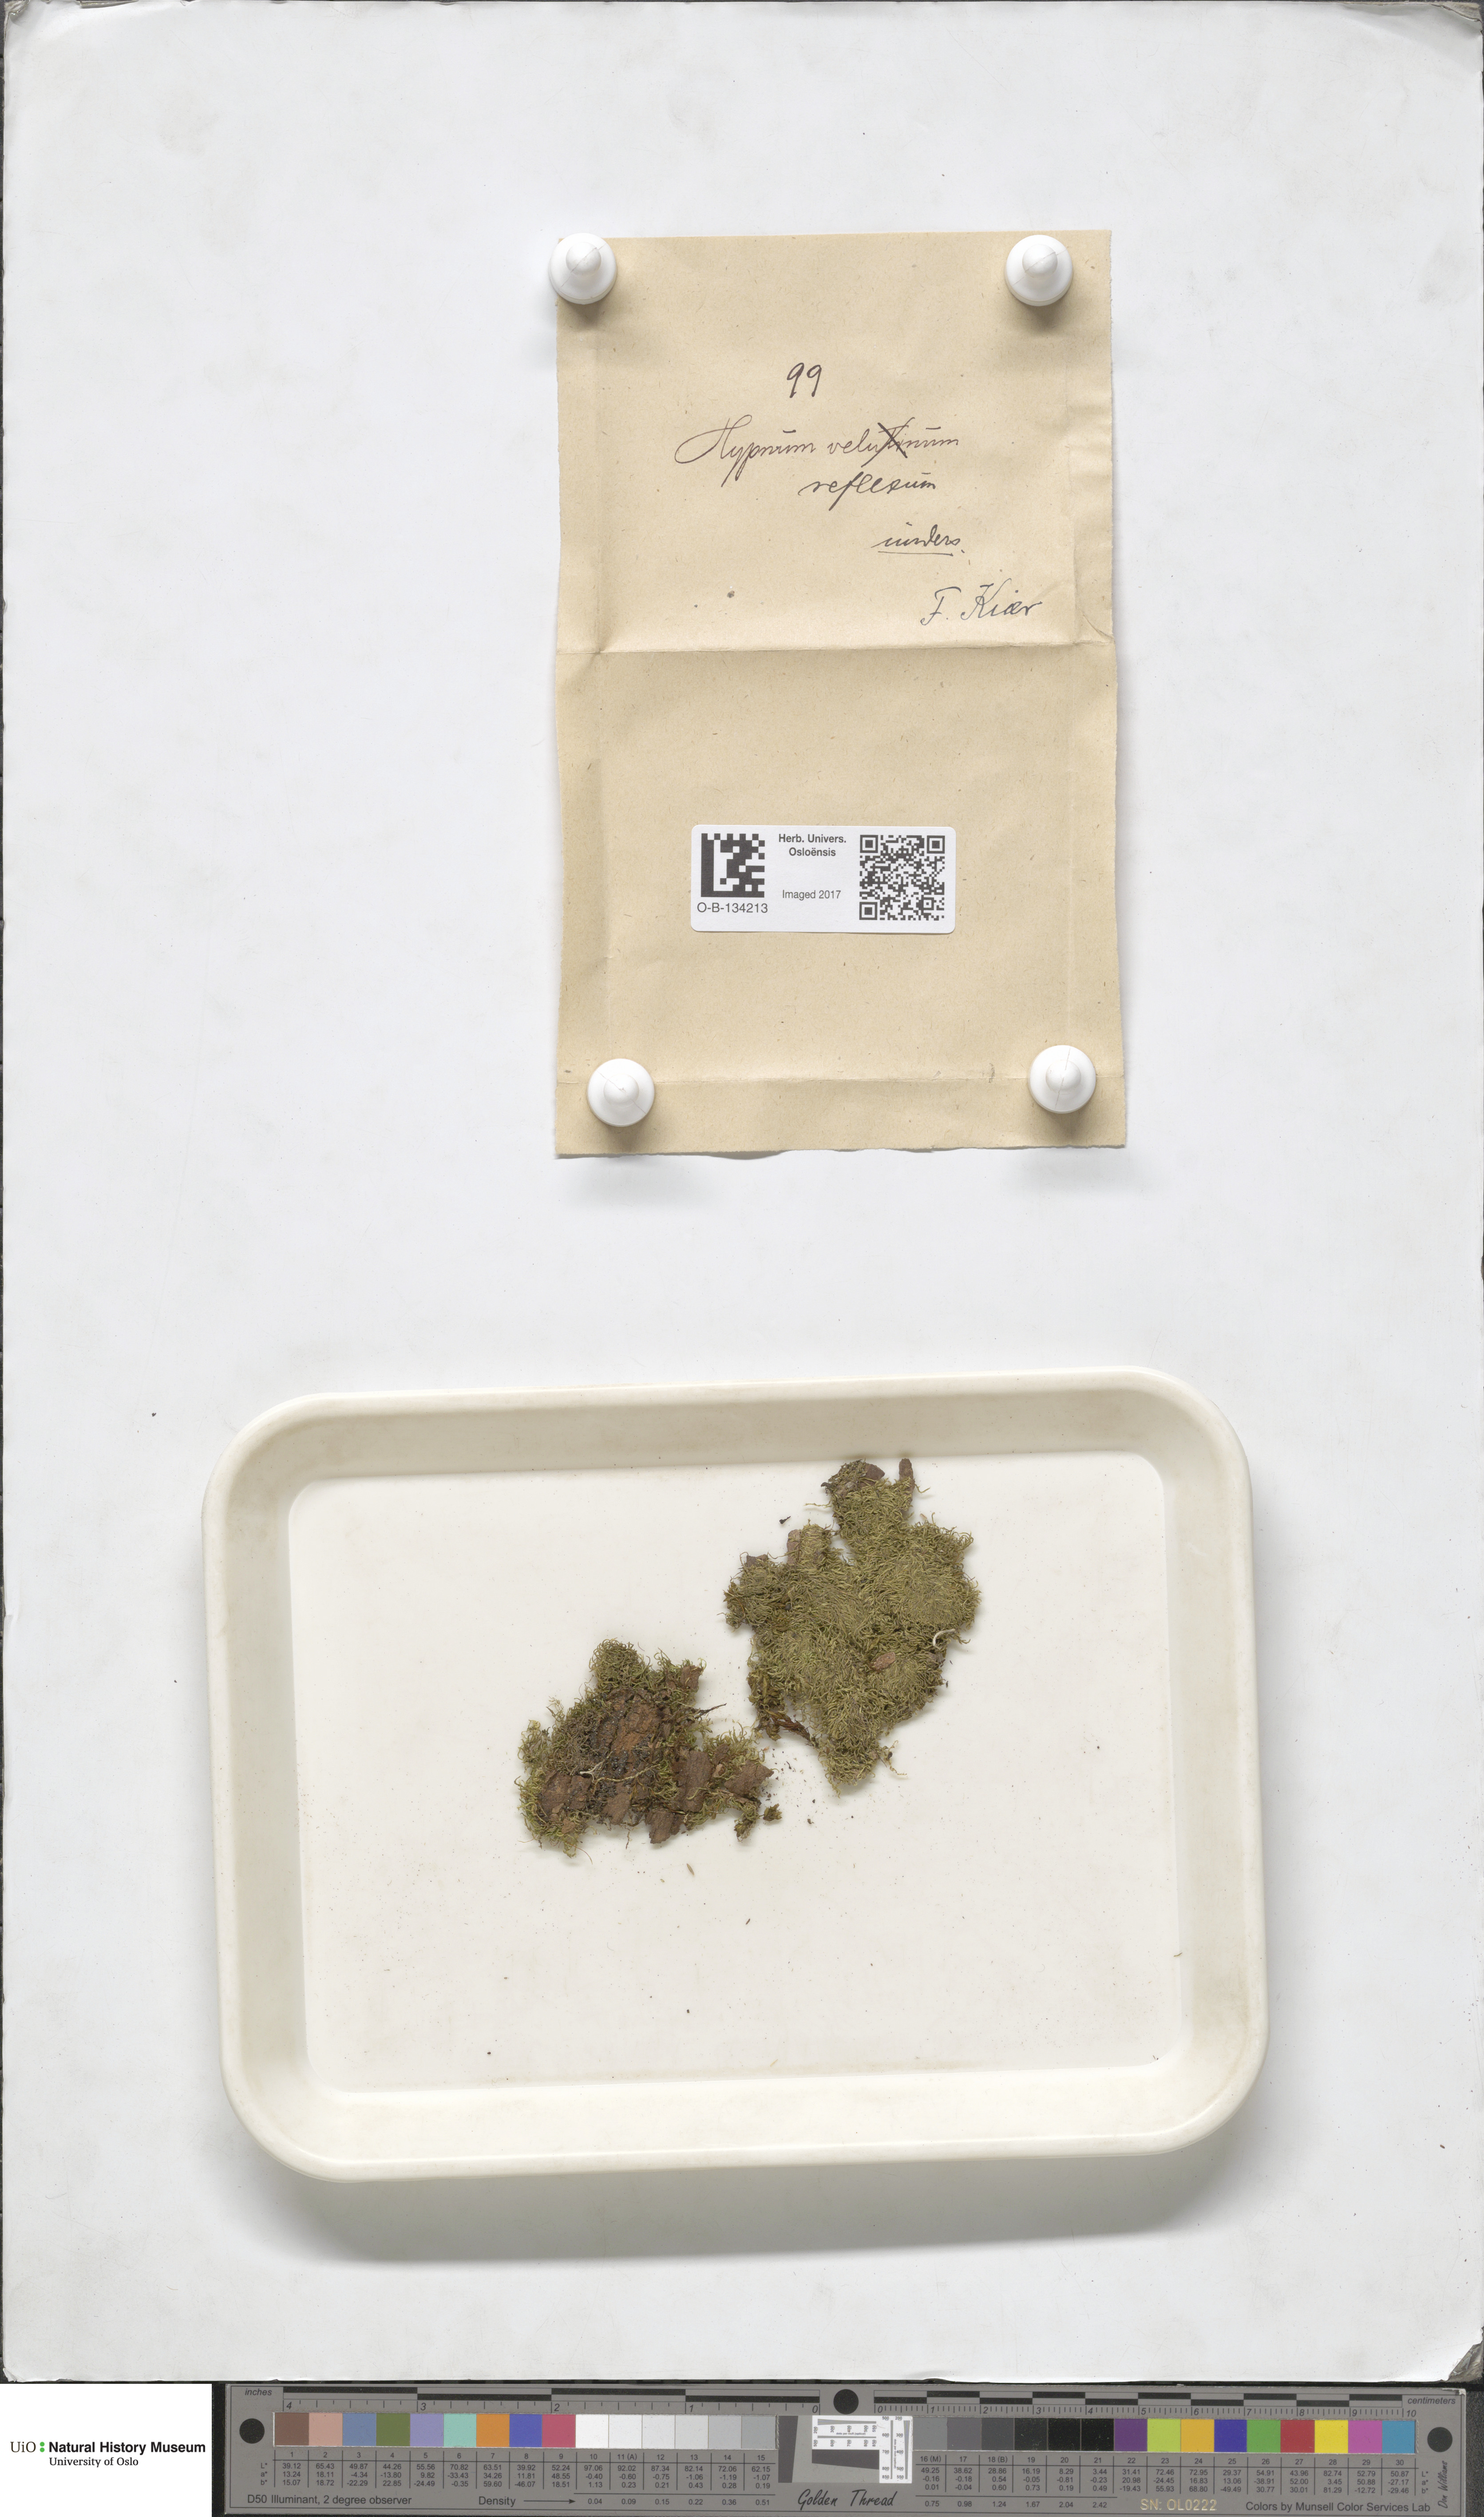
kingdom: Plantae
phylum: Bryophyta
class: Bryopsida
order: Hypnales
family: Brachytheciaceae
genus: Sciuro-hypnum
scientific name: Sciuro-hypnum reflexum
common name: Reflexed feather-moss
